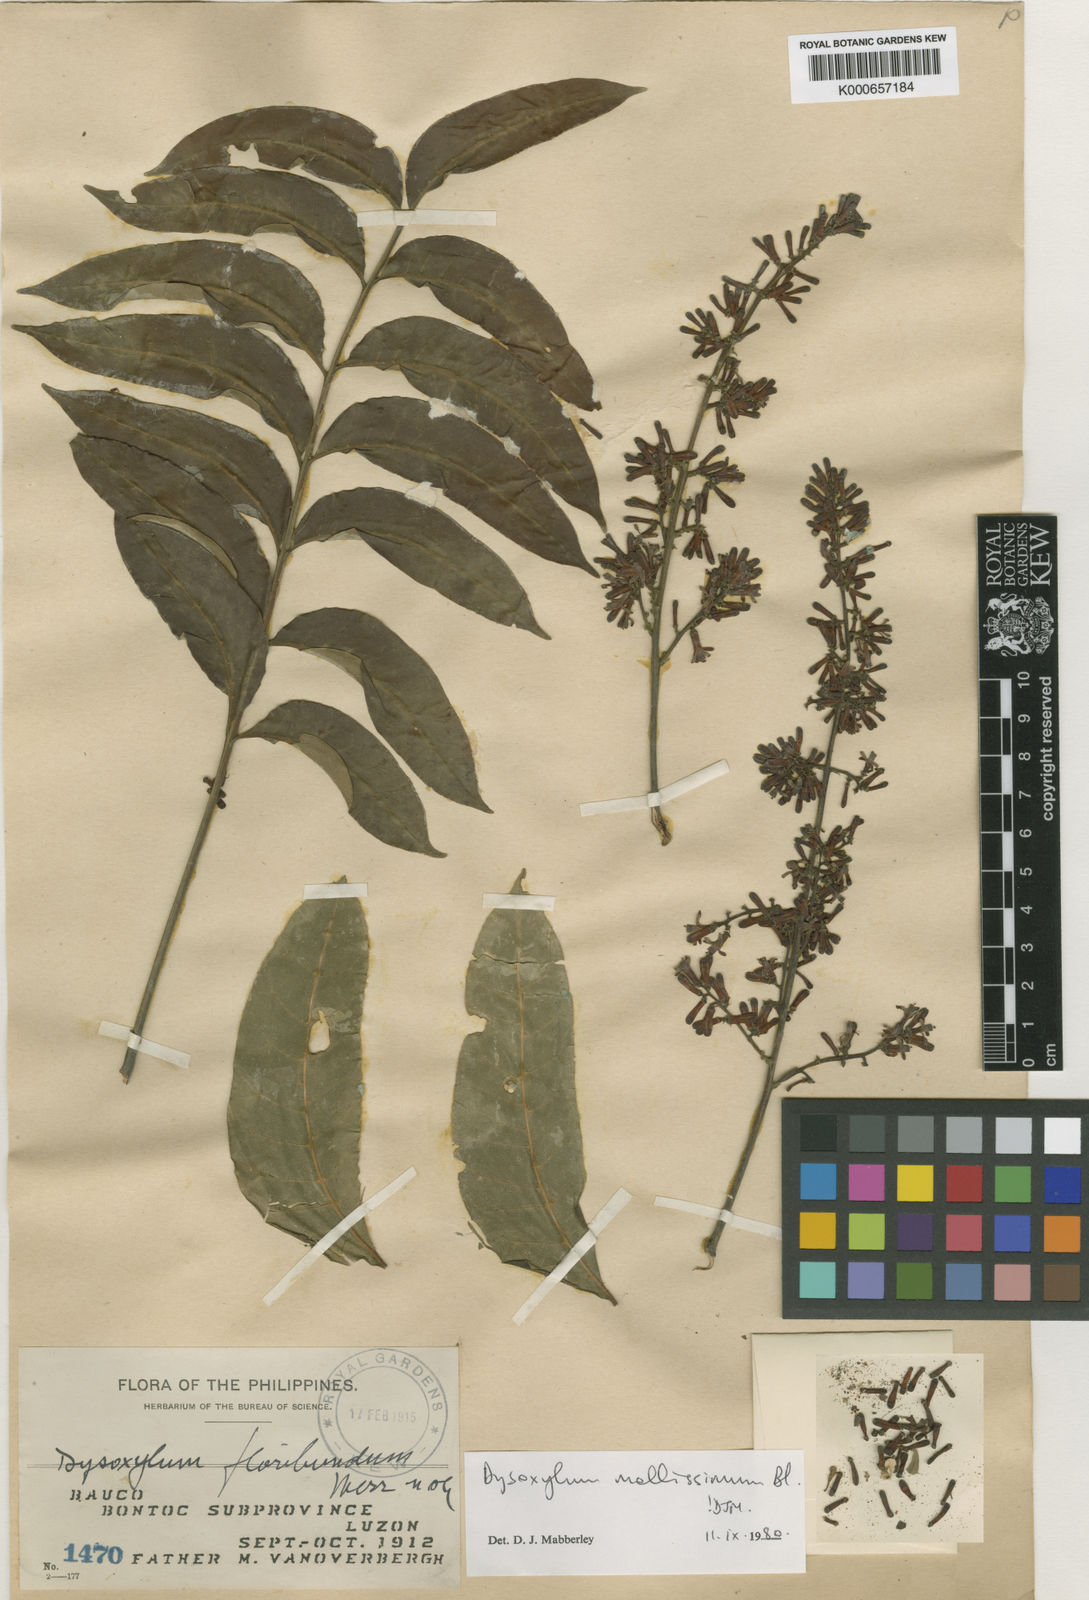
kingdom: Plantae
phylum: Tracheophyta
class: Magnoliopsida
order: Sapindales
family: Meliaceae
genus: Dysoxylum
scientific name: Dysoxylum mollissimum
